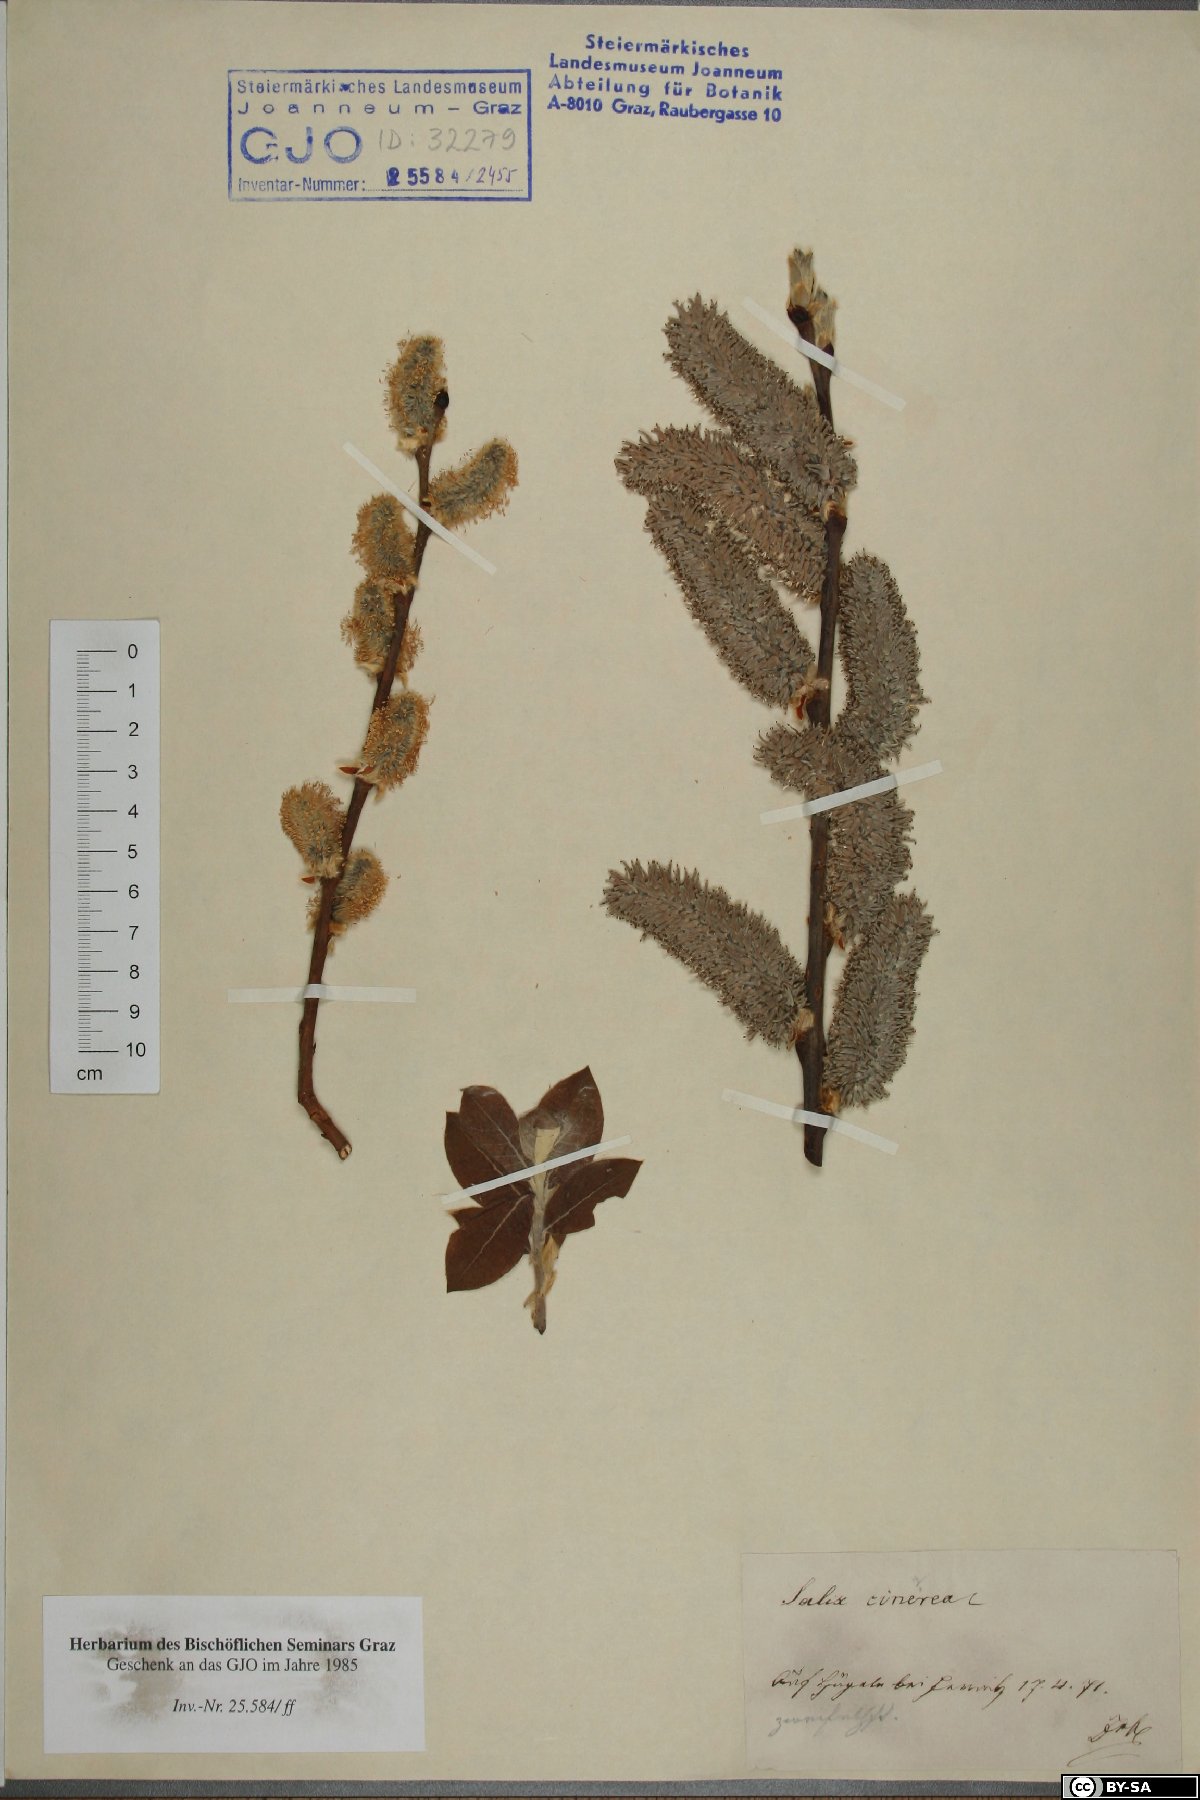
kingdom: Plantae
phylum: Tracheophyta
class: Magnoliopsida
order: Malpighiales
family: Salicaceae
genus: Salix
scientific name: Salix cinerea
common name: Common sallow
